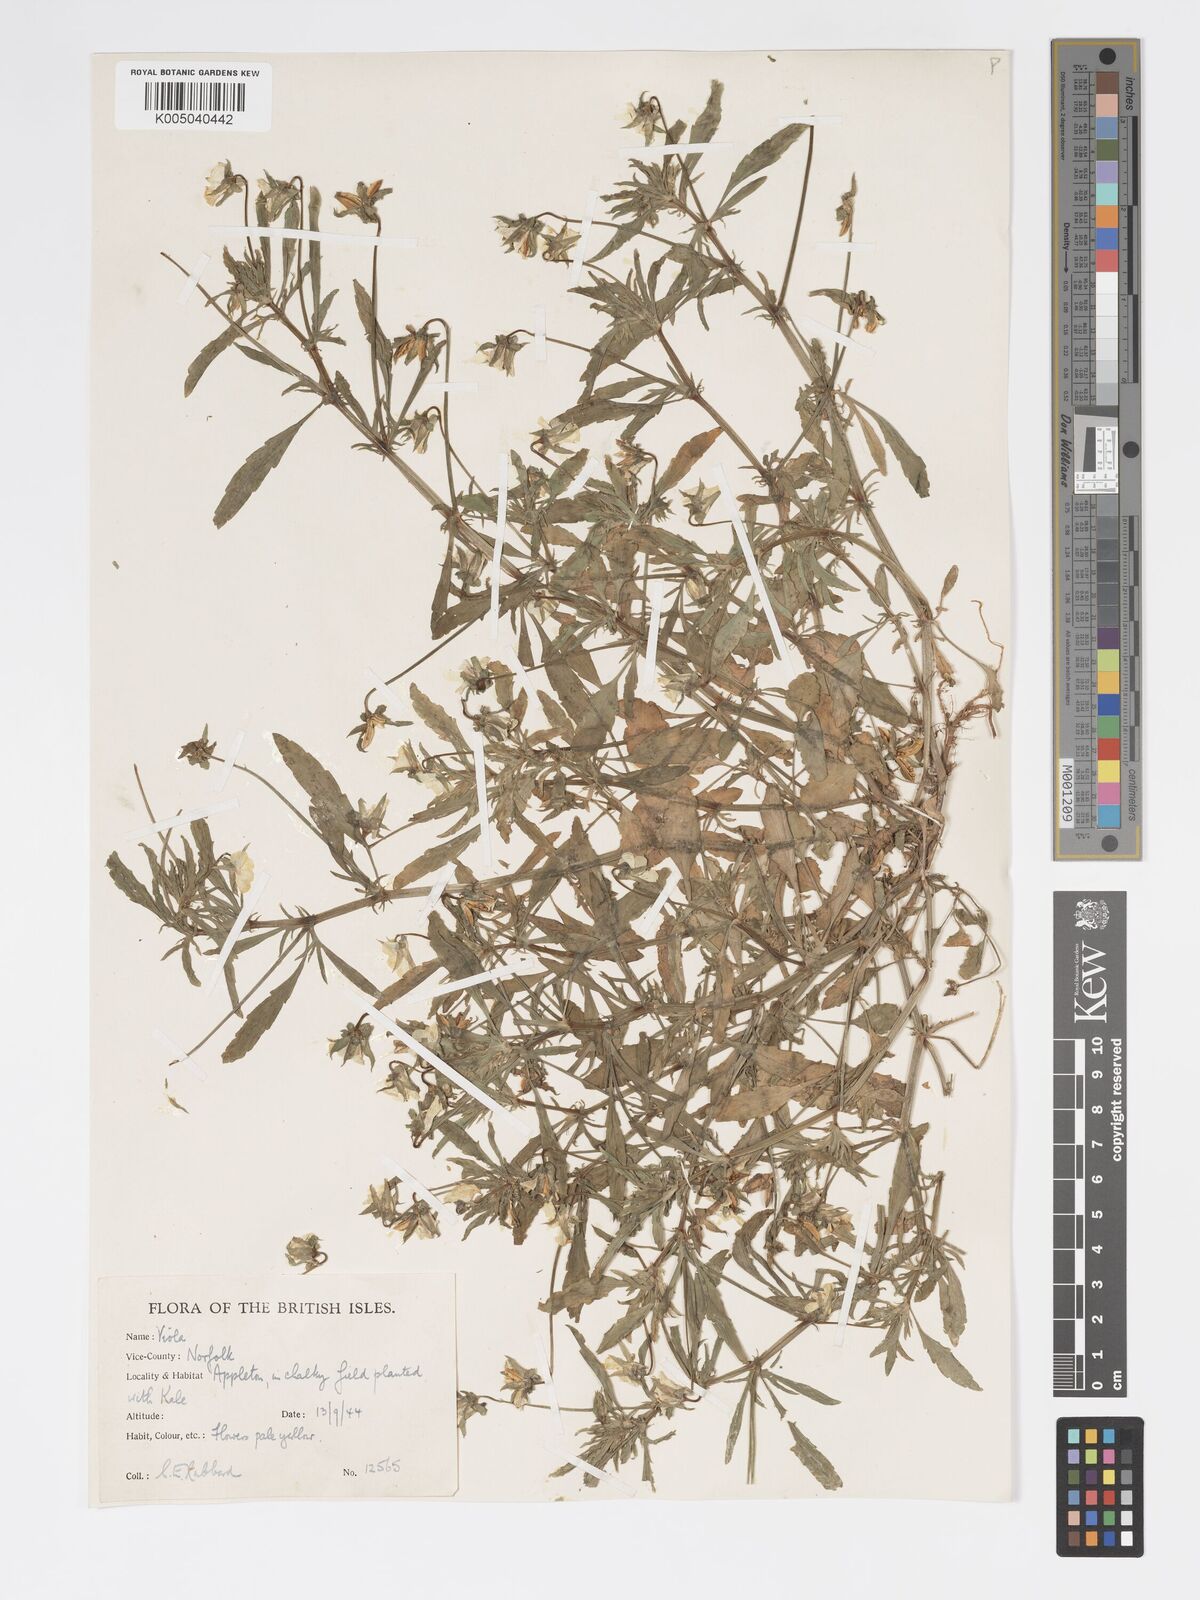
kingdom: Plantae
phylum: Tracheophyta
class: Magnoliopsida
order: Malpighiales
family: Violaceae
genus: Viola
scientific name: Viola arvensis
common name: Field pansy
